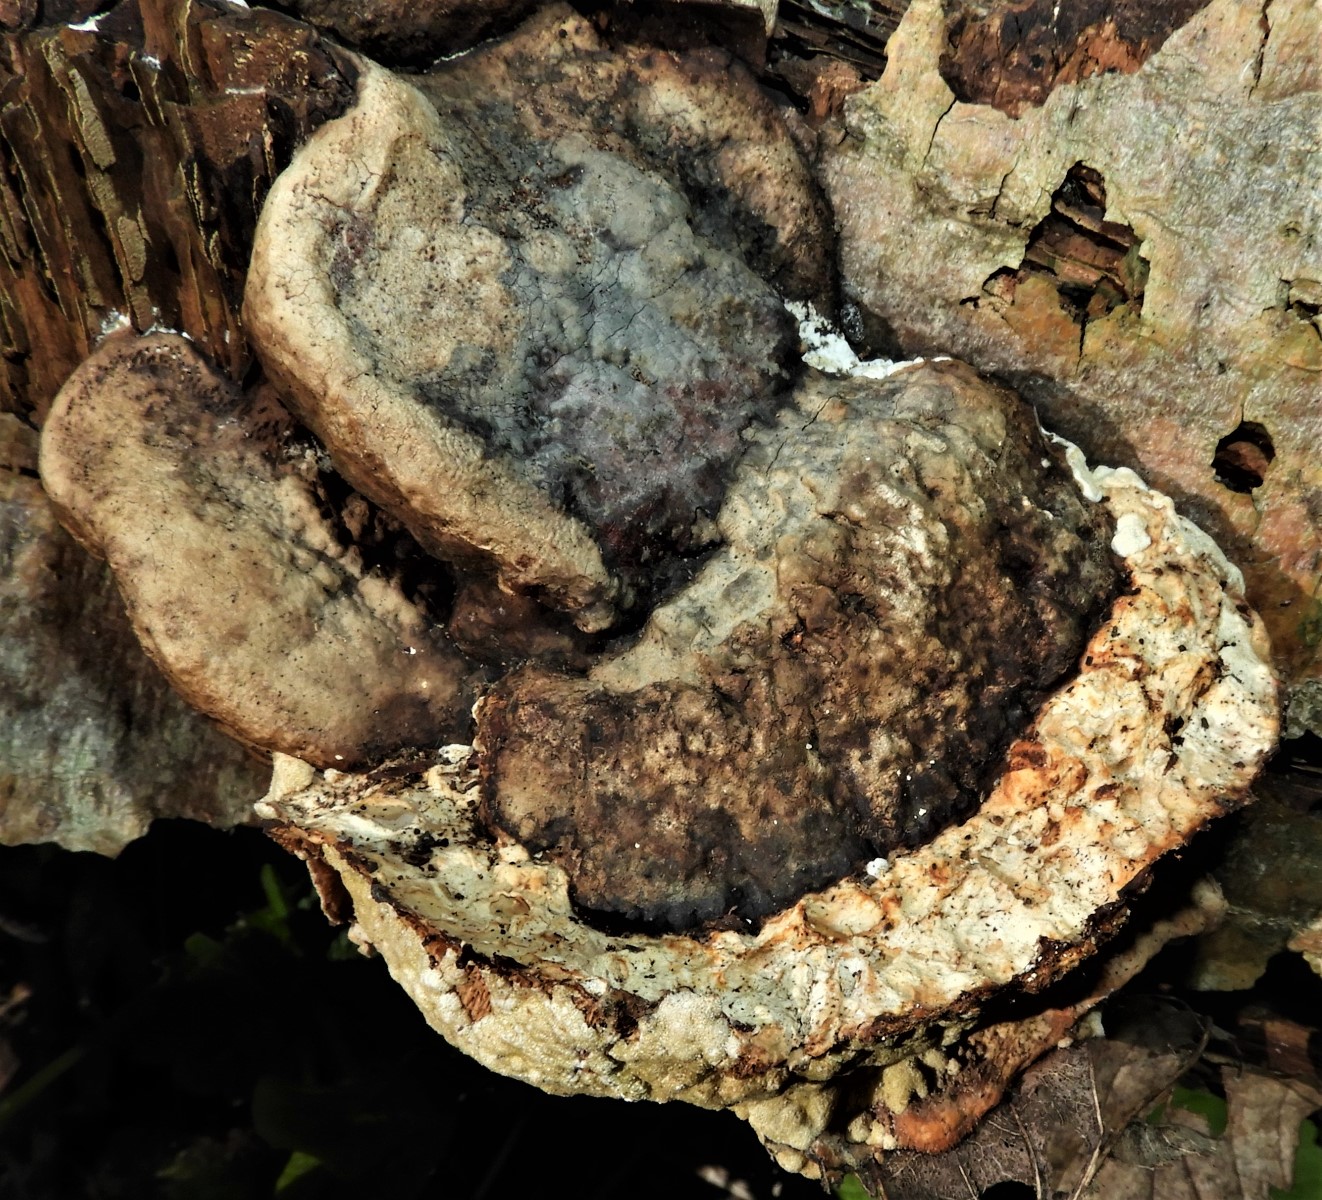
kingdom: Fungi
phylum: Basidiomycota
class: Agaricomycetes
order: Polyporales
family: Polyporaceae
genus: Fomes
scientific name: Fomes fomentarius
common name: tøndersvamp
